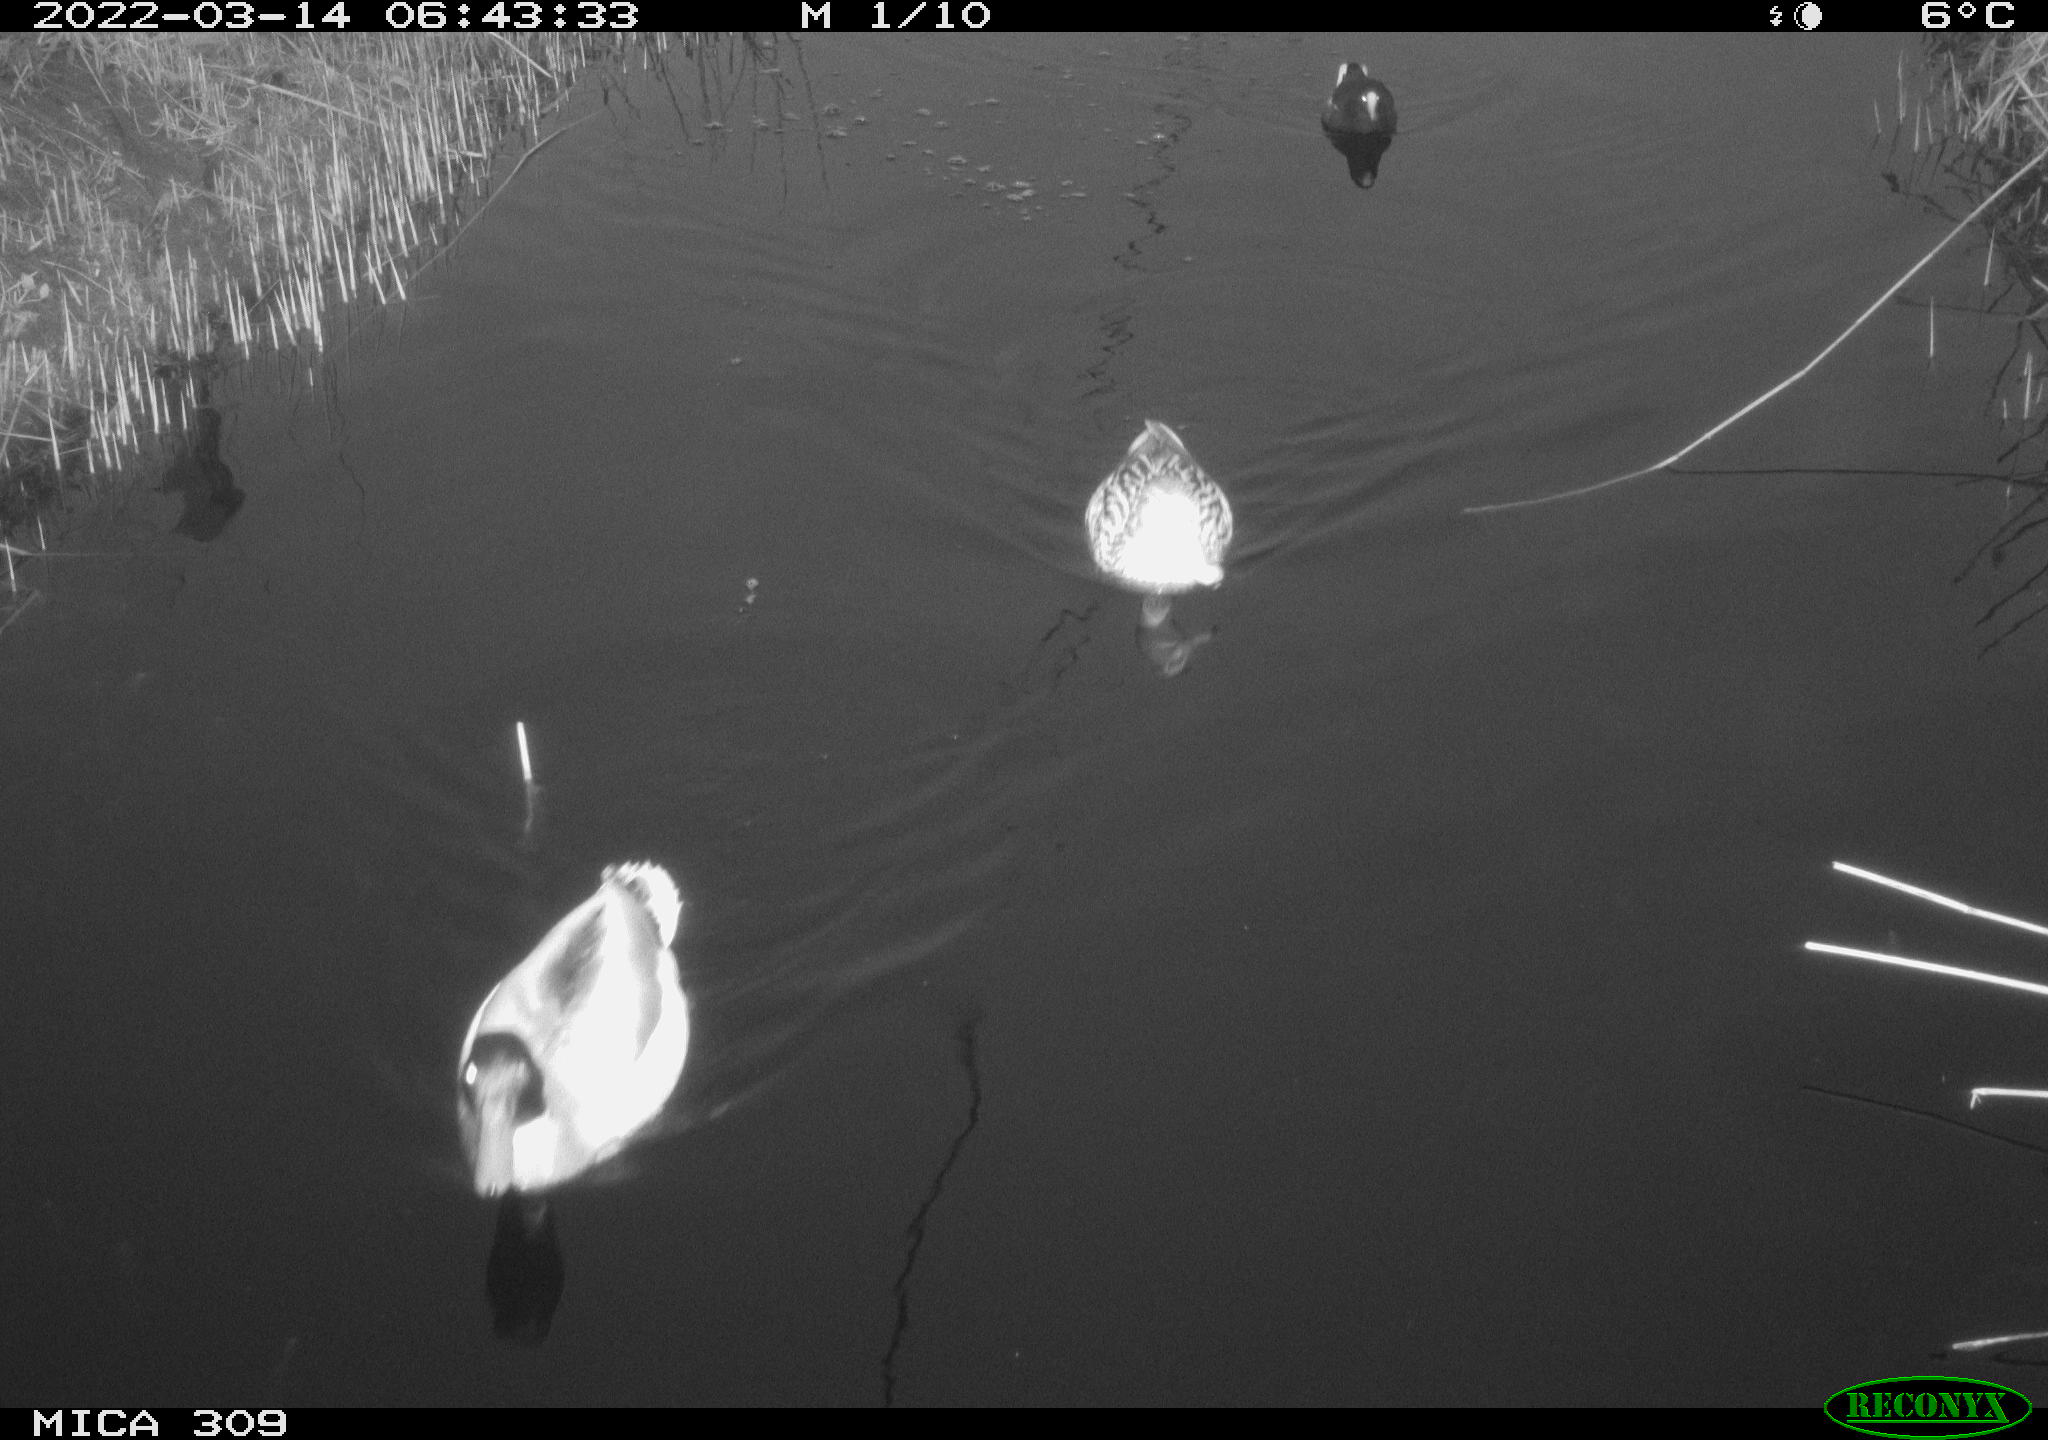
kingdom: Animalia
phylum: Chordata
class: Aves
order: Anseriformes
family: Anatidae
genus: Anas
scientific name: Anas platyrhynchos
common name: Mallard
